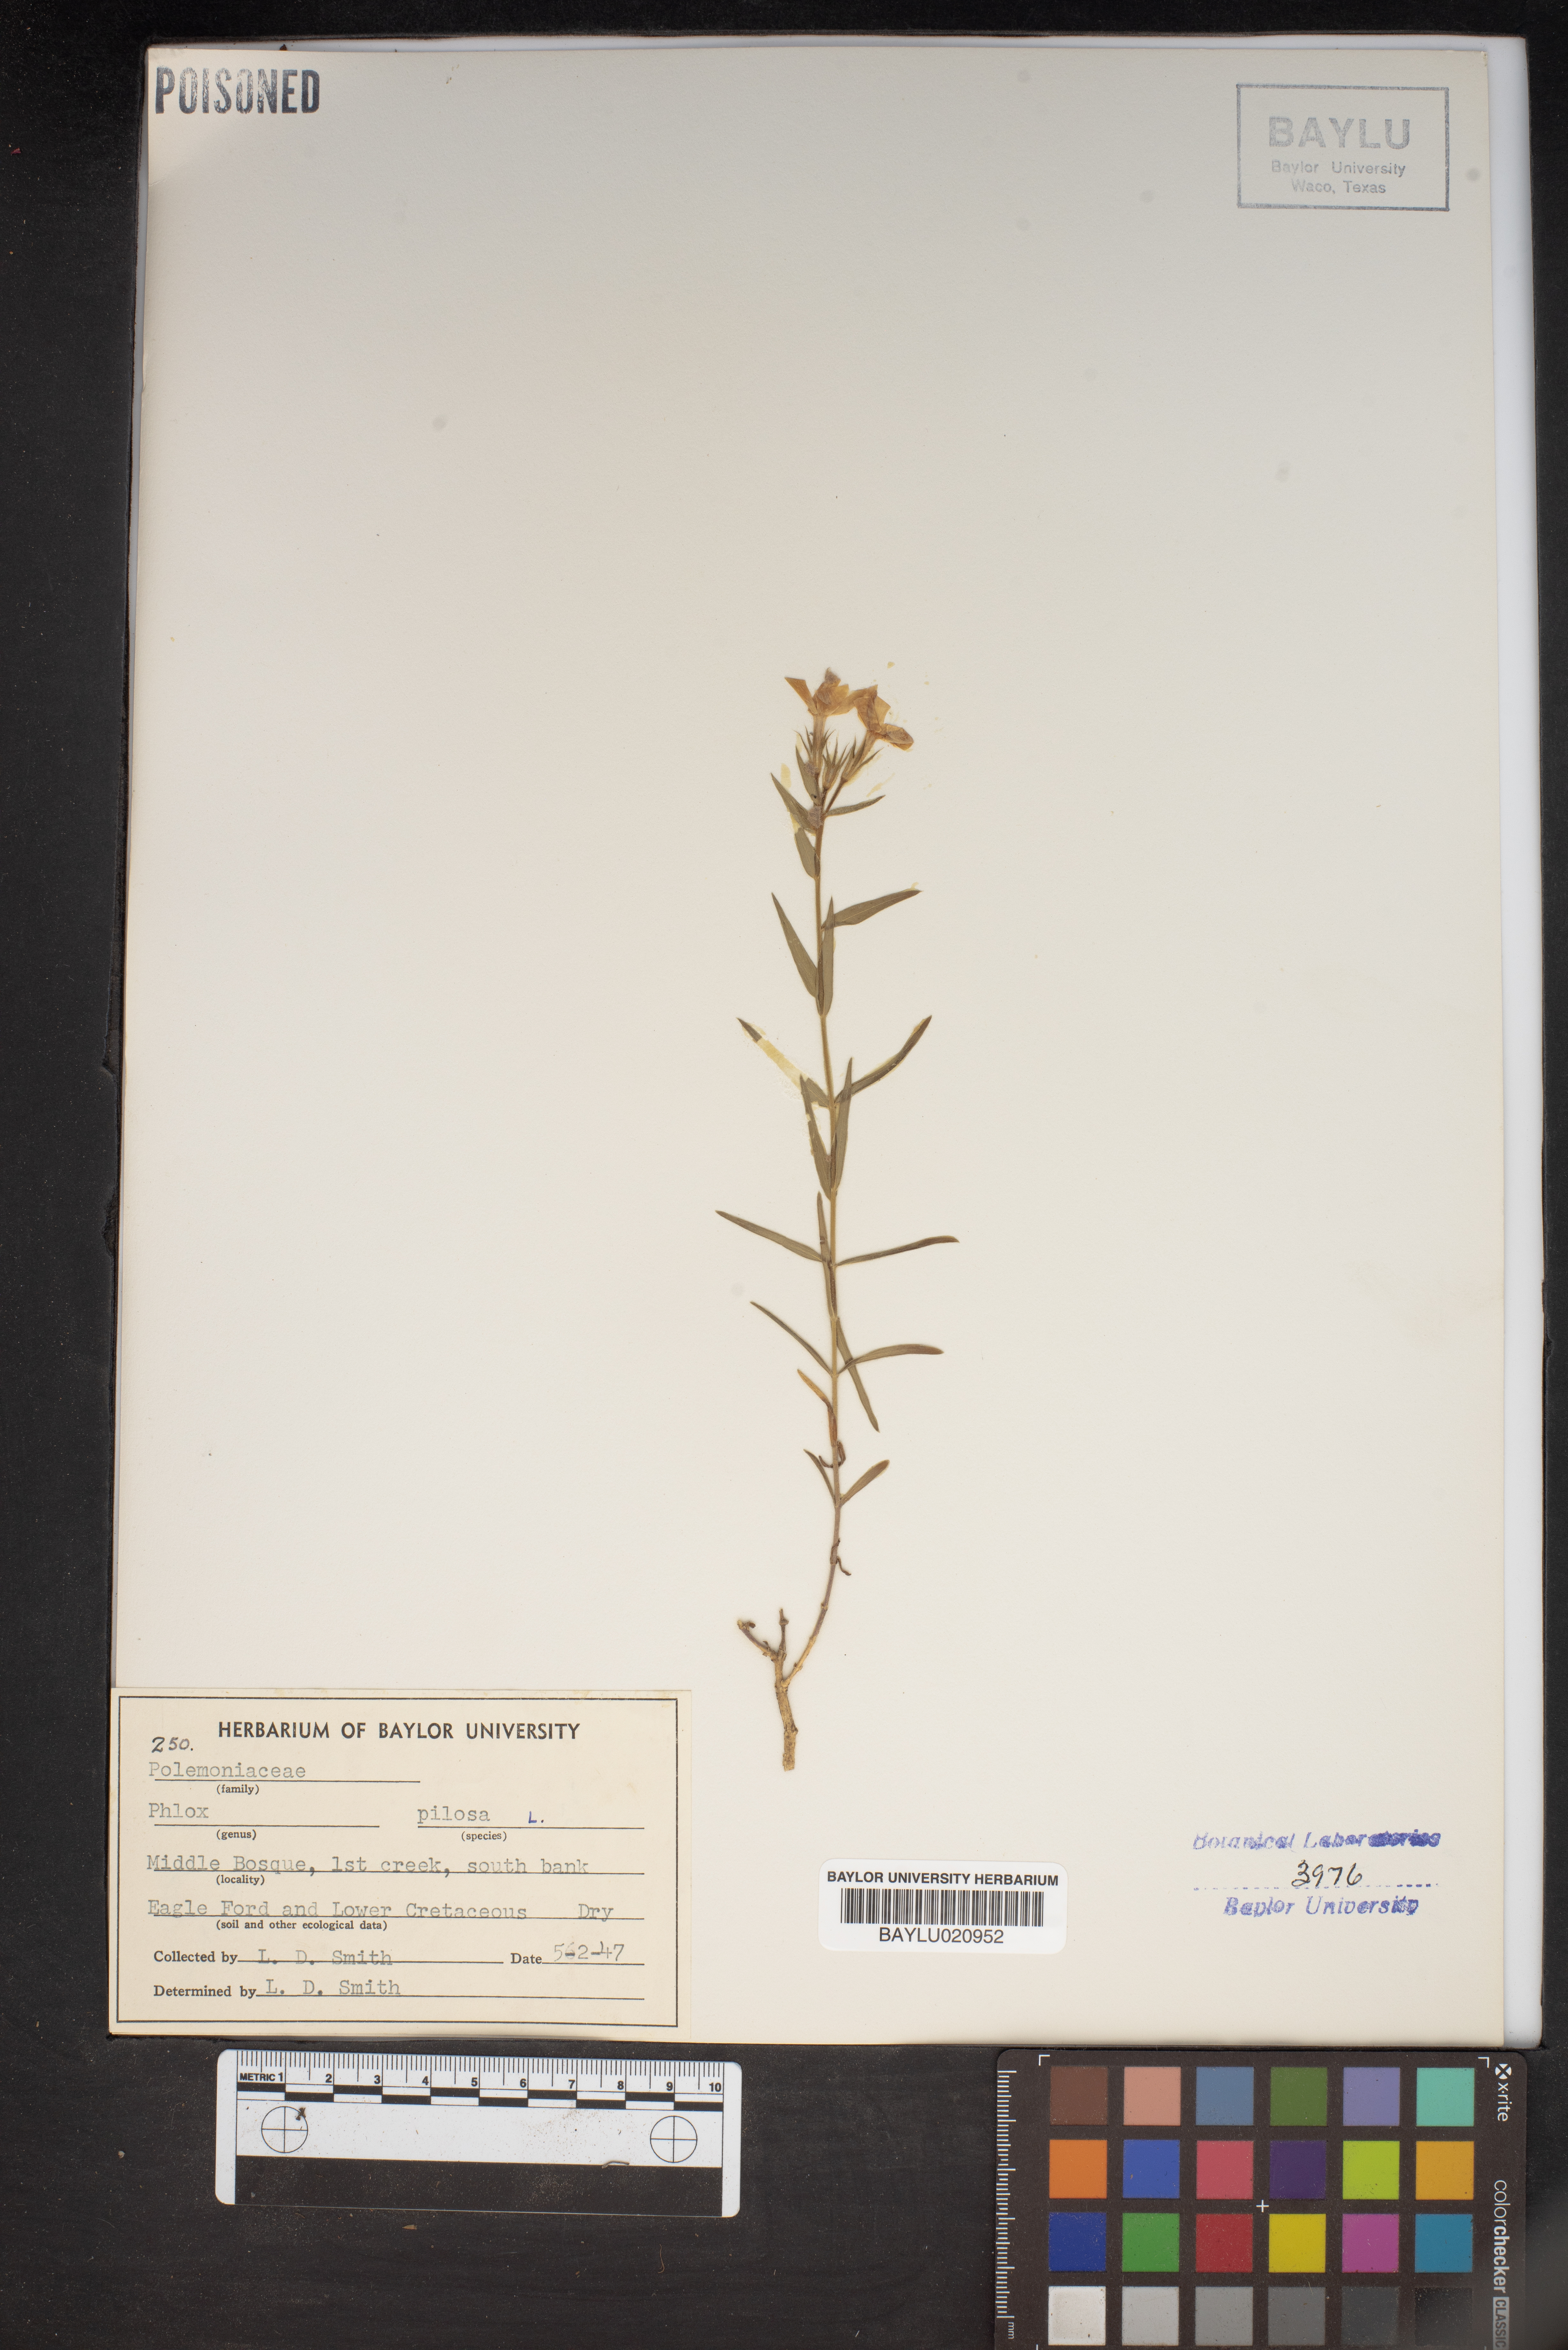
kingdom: Plantae
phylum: Tracheophyta
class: Magnoliopsida
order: Ericales
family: Polemoniaceae
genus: Phlox
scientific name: Phlox pilosa
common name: Prairie phlox
